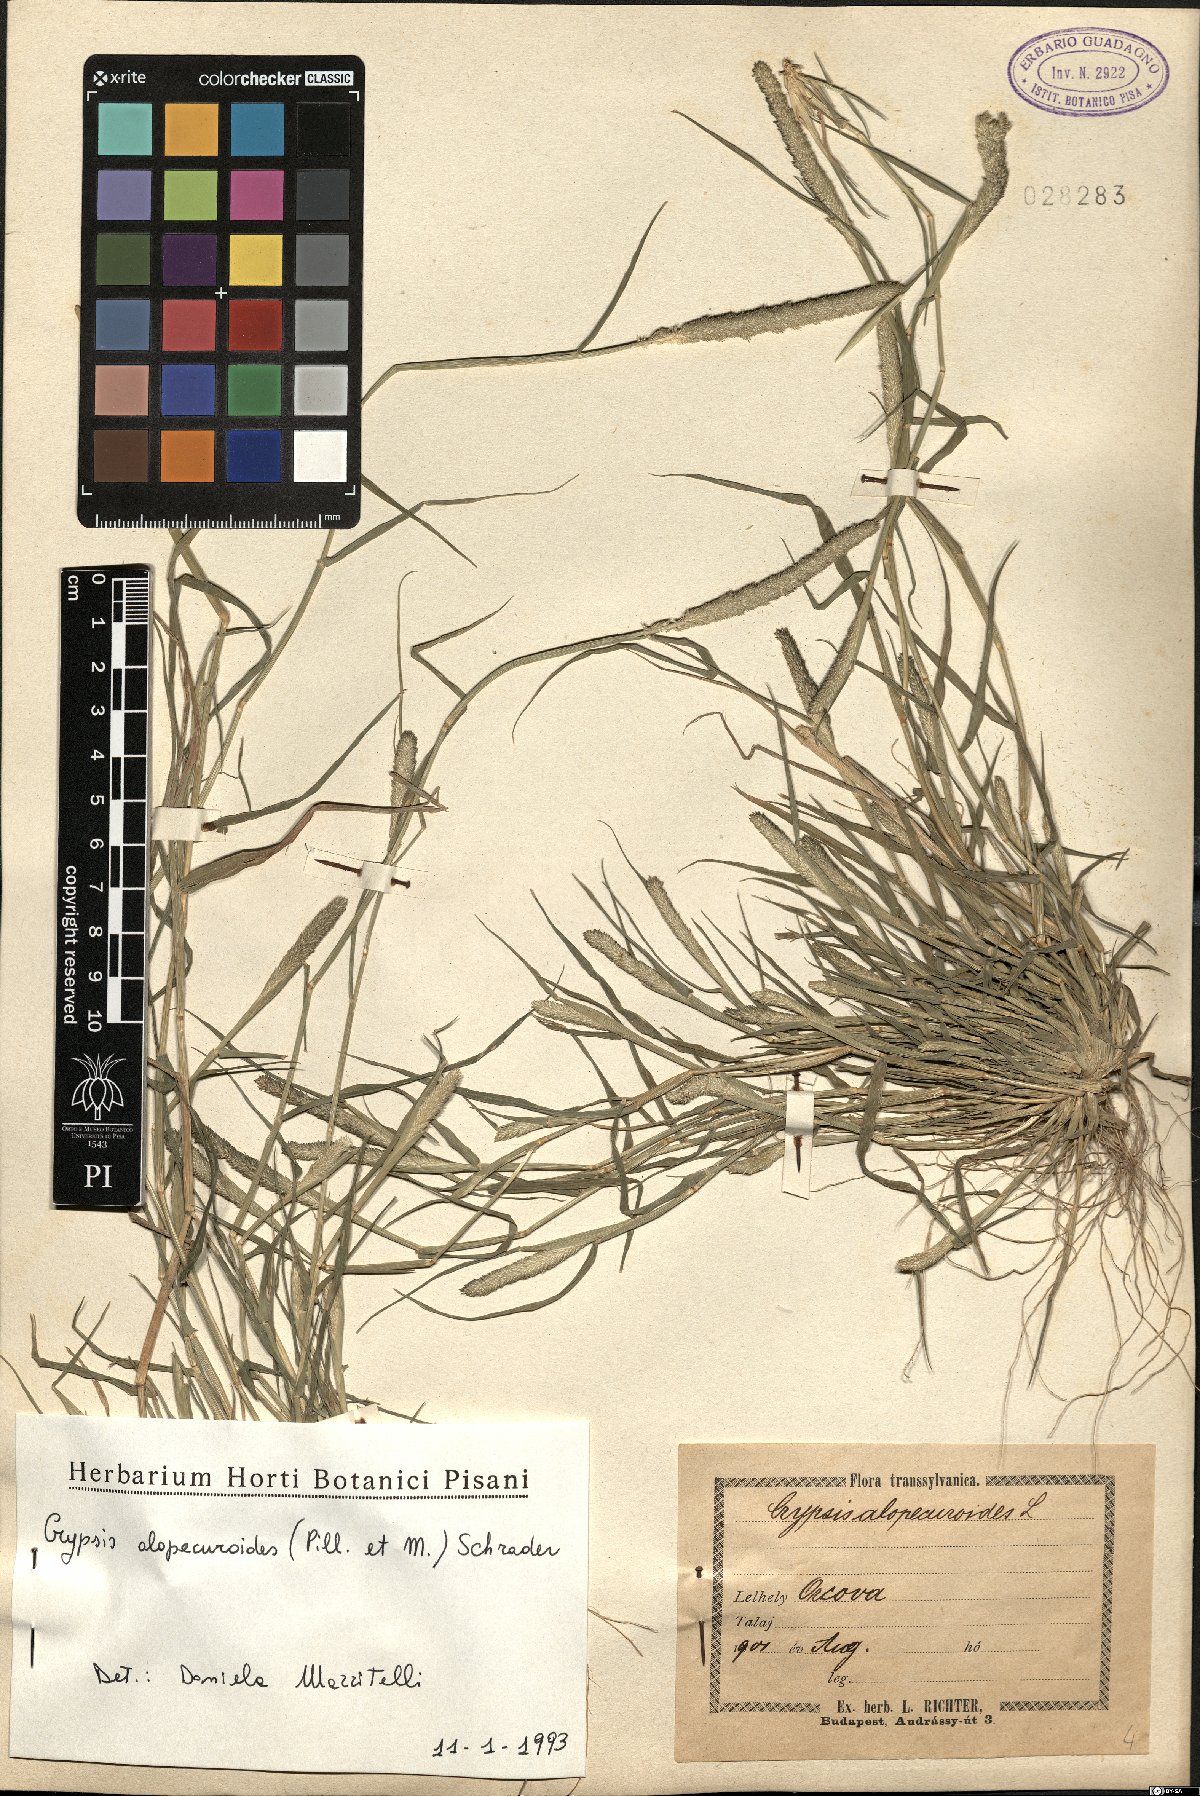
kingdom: Plantae
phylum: Tracheophyta
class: Liliopsida
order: Poales
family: Poaceae
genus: Sporobolus
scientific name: Sporobolus alopecuroides
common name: Foxtail pricklegrass
